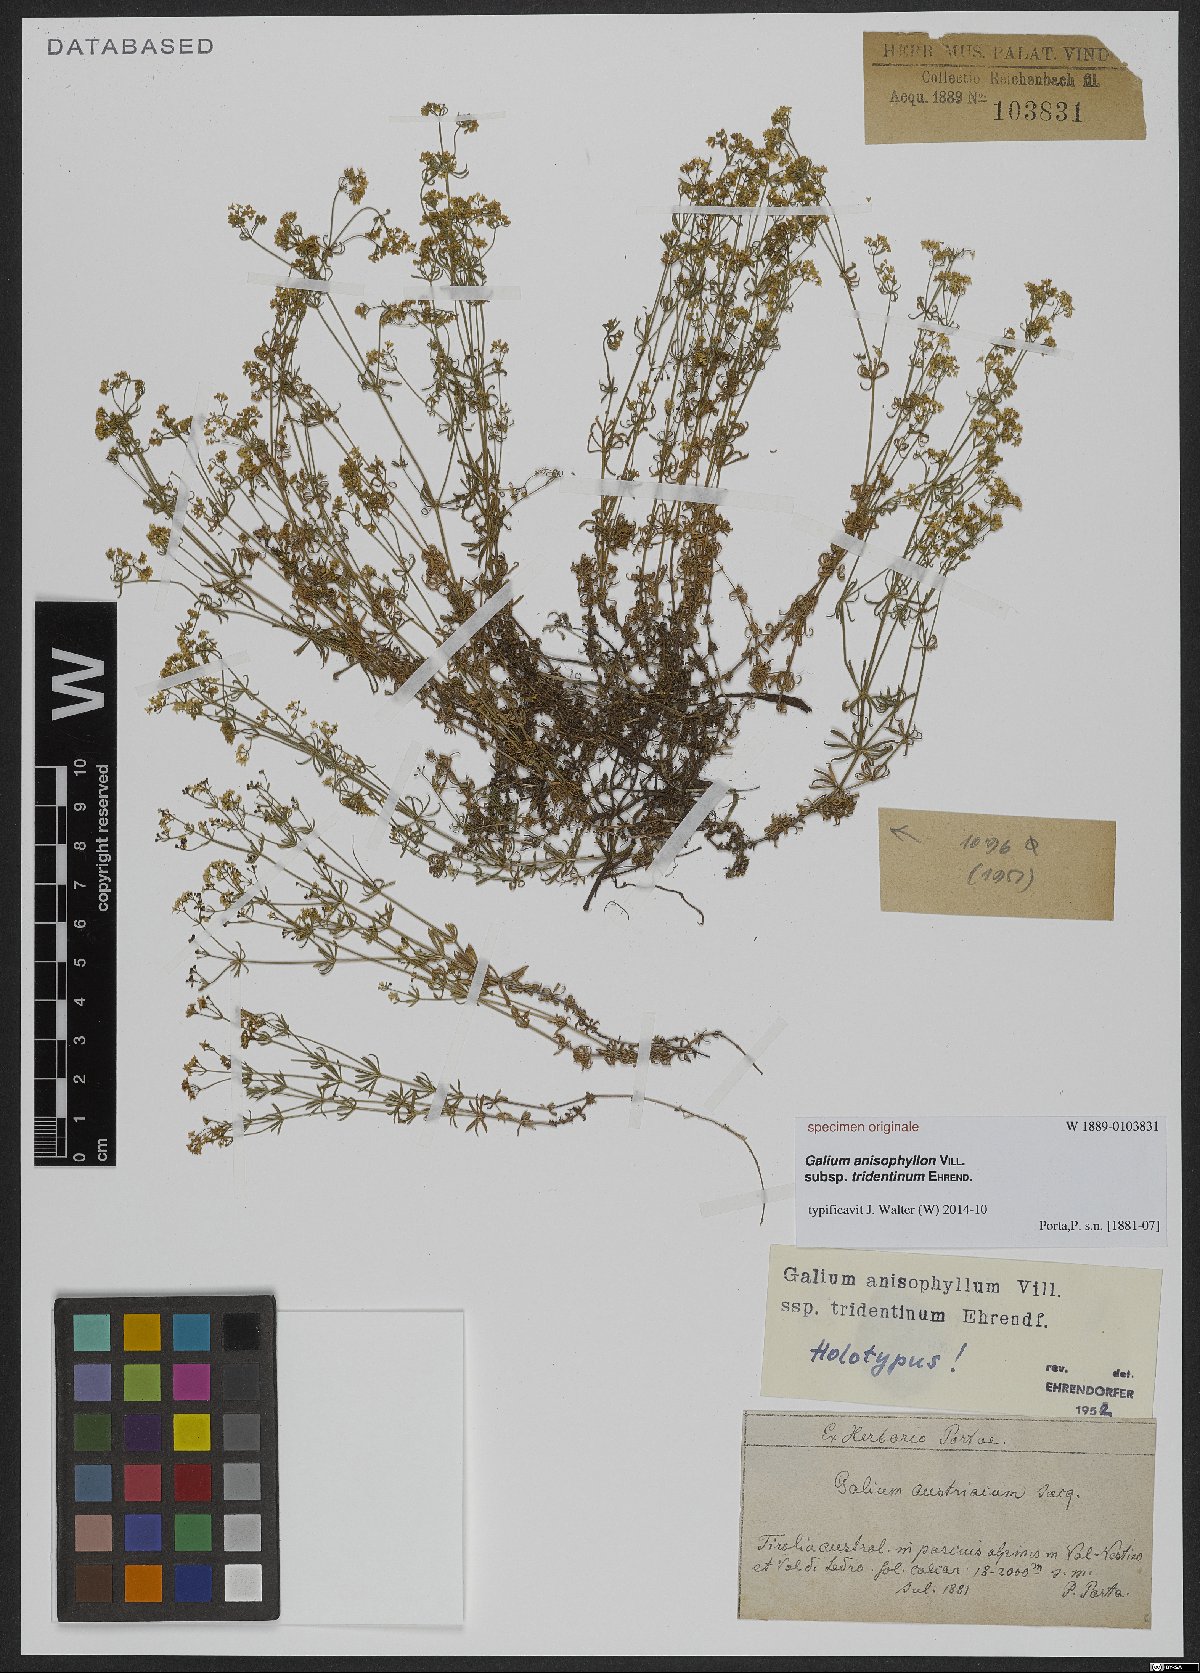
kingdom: Plantae
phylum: Tracheophyta
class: Magnoliopsida
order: Gentianales
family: Rubiaceae
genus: Galium
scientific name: Galium anisophyllon
